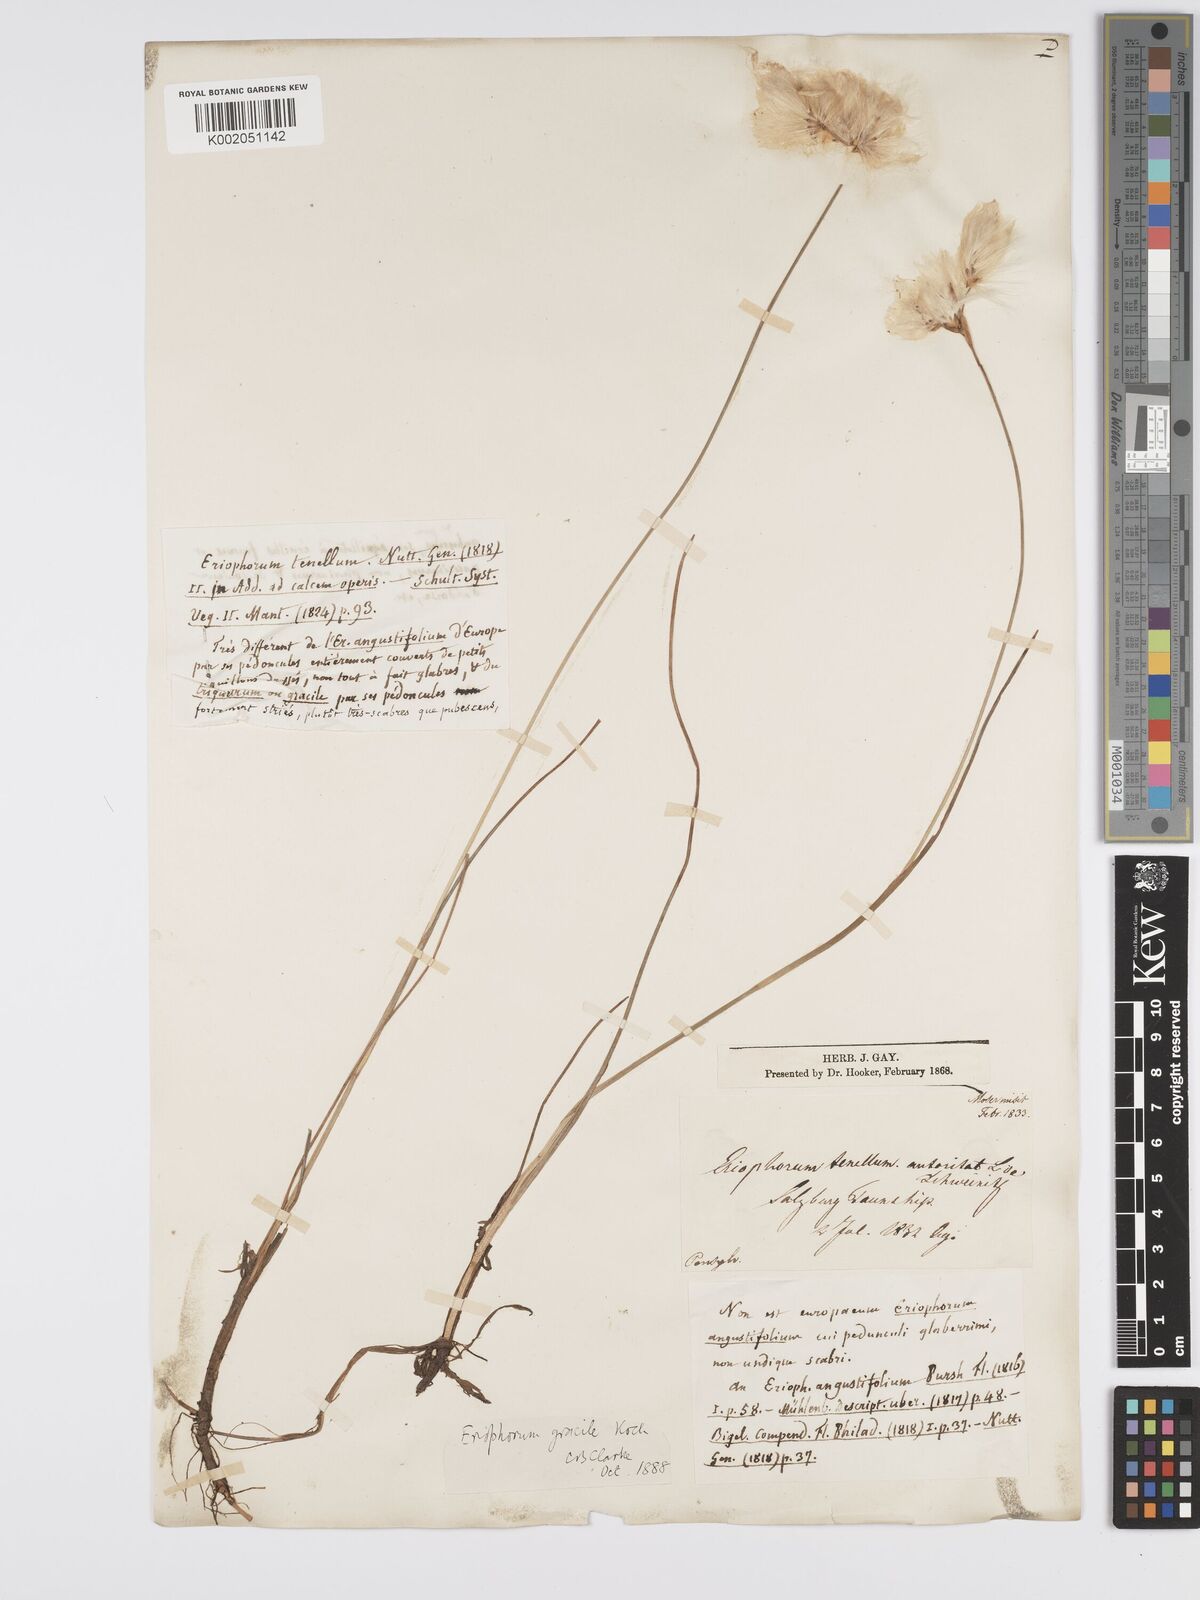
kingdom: Plantae
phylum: Tracheophyta
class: Liliopsida
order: Poales
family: Cyperaceae
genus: Eriophorum
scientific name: Eriophorum gracile
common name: Slender cottongrass
